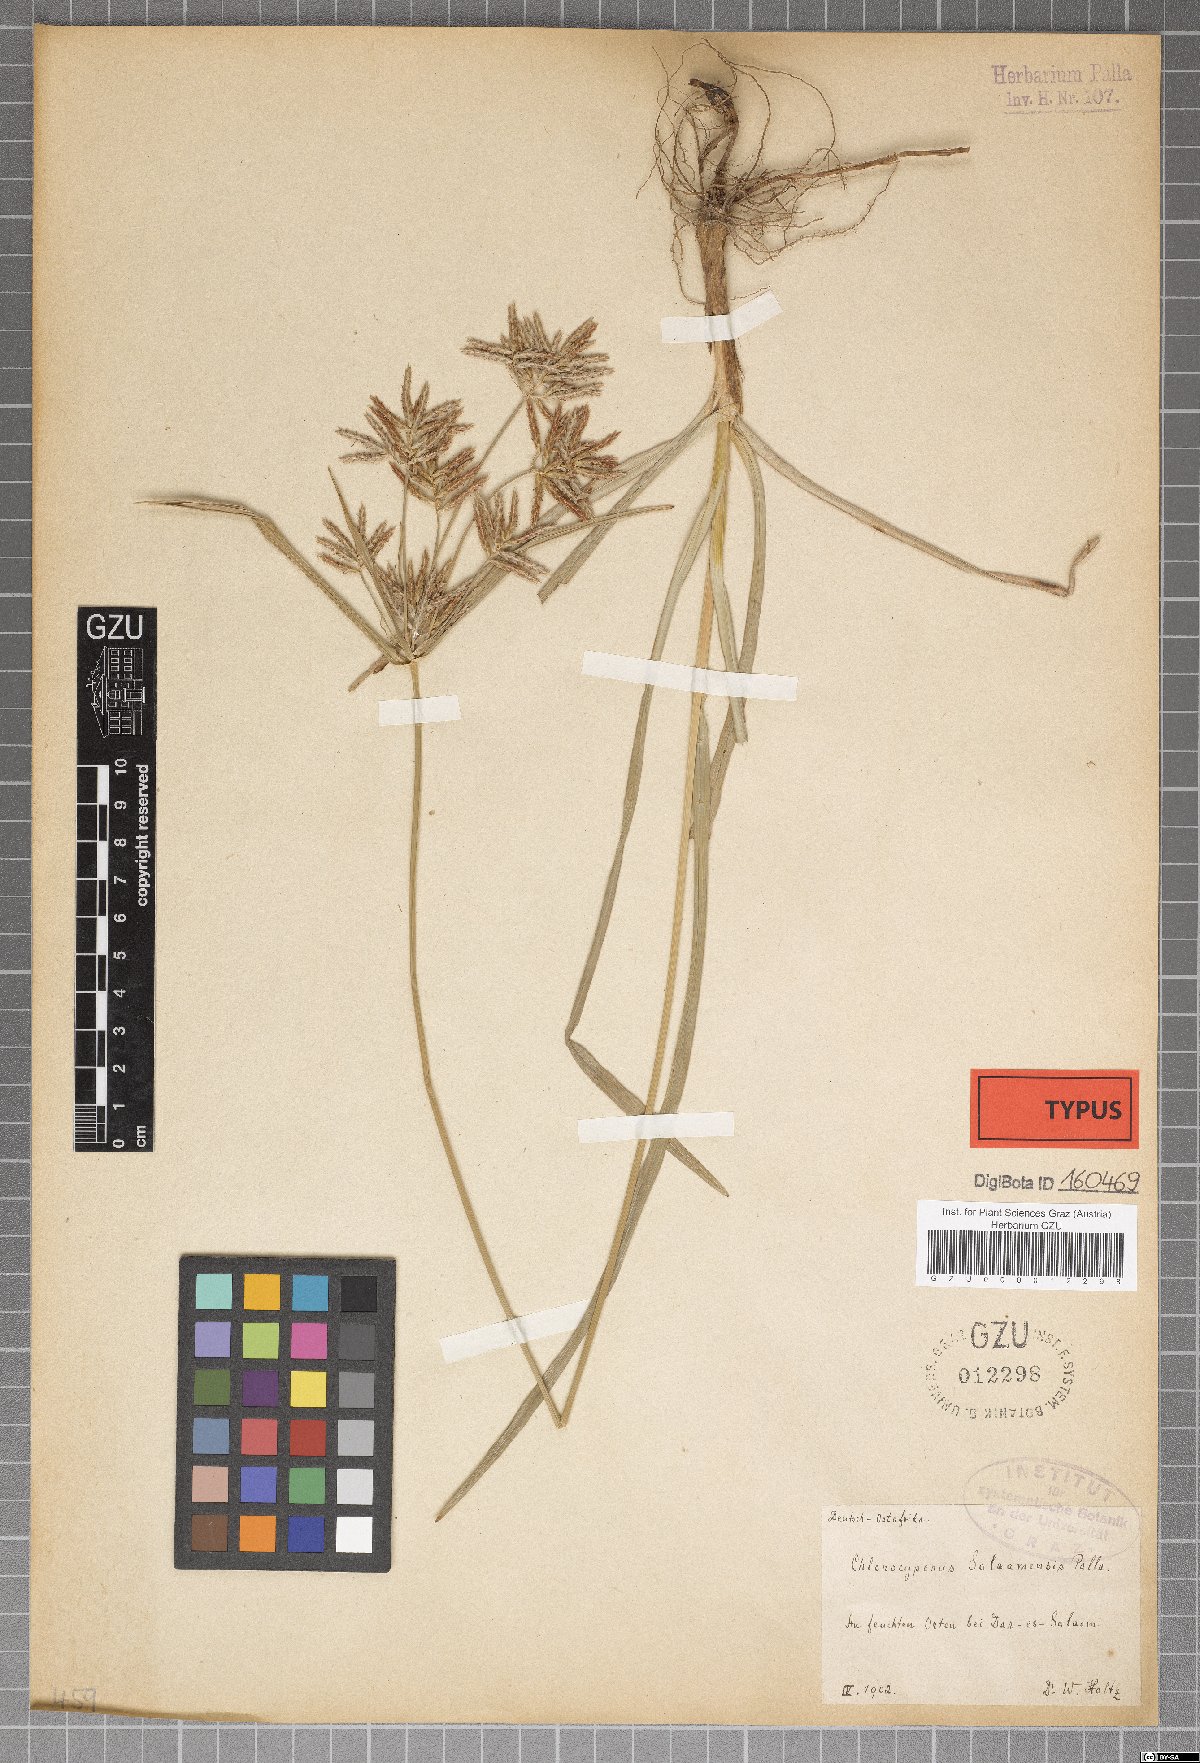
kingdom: Plantae
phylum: Tracheophyta
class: Liliopsida
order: Poales
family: Cyperaceae
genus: Cyperus
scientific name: Cyperus tuberosus
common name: Nut grass
